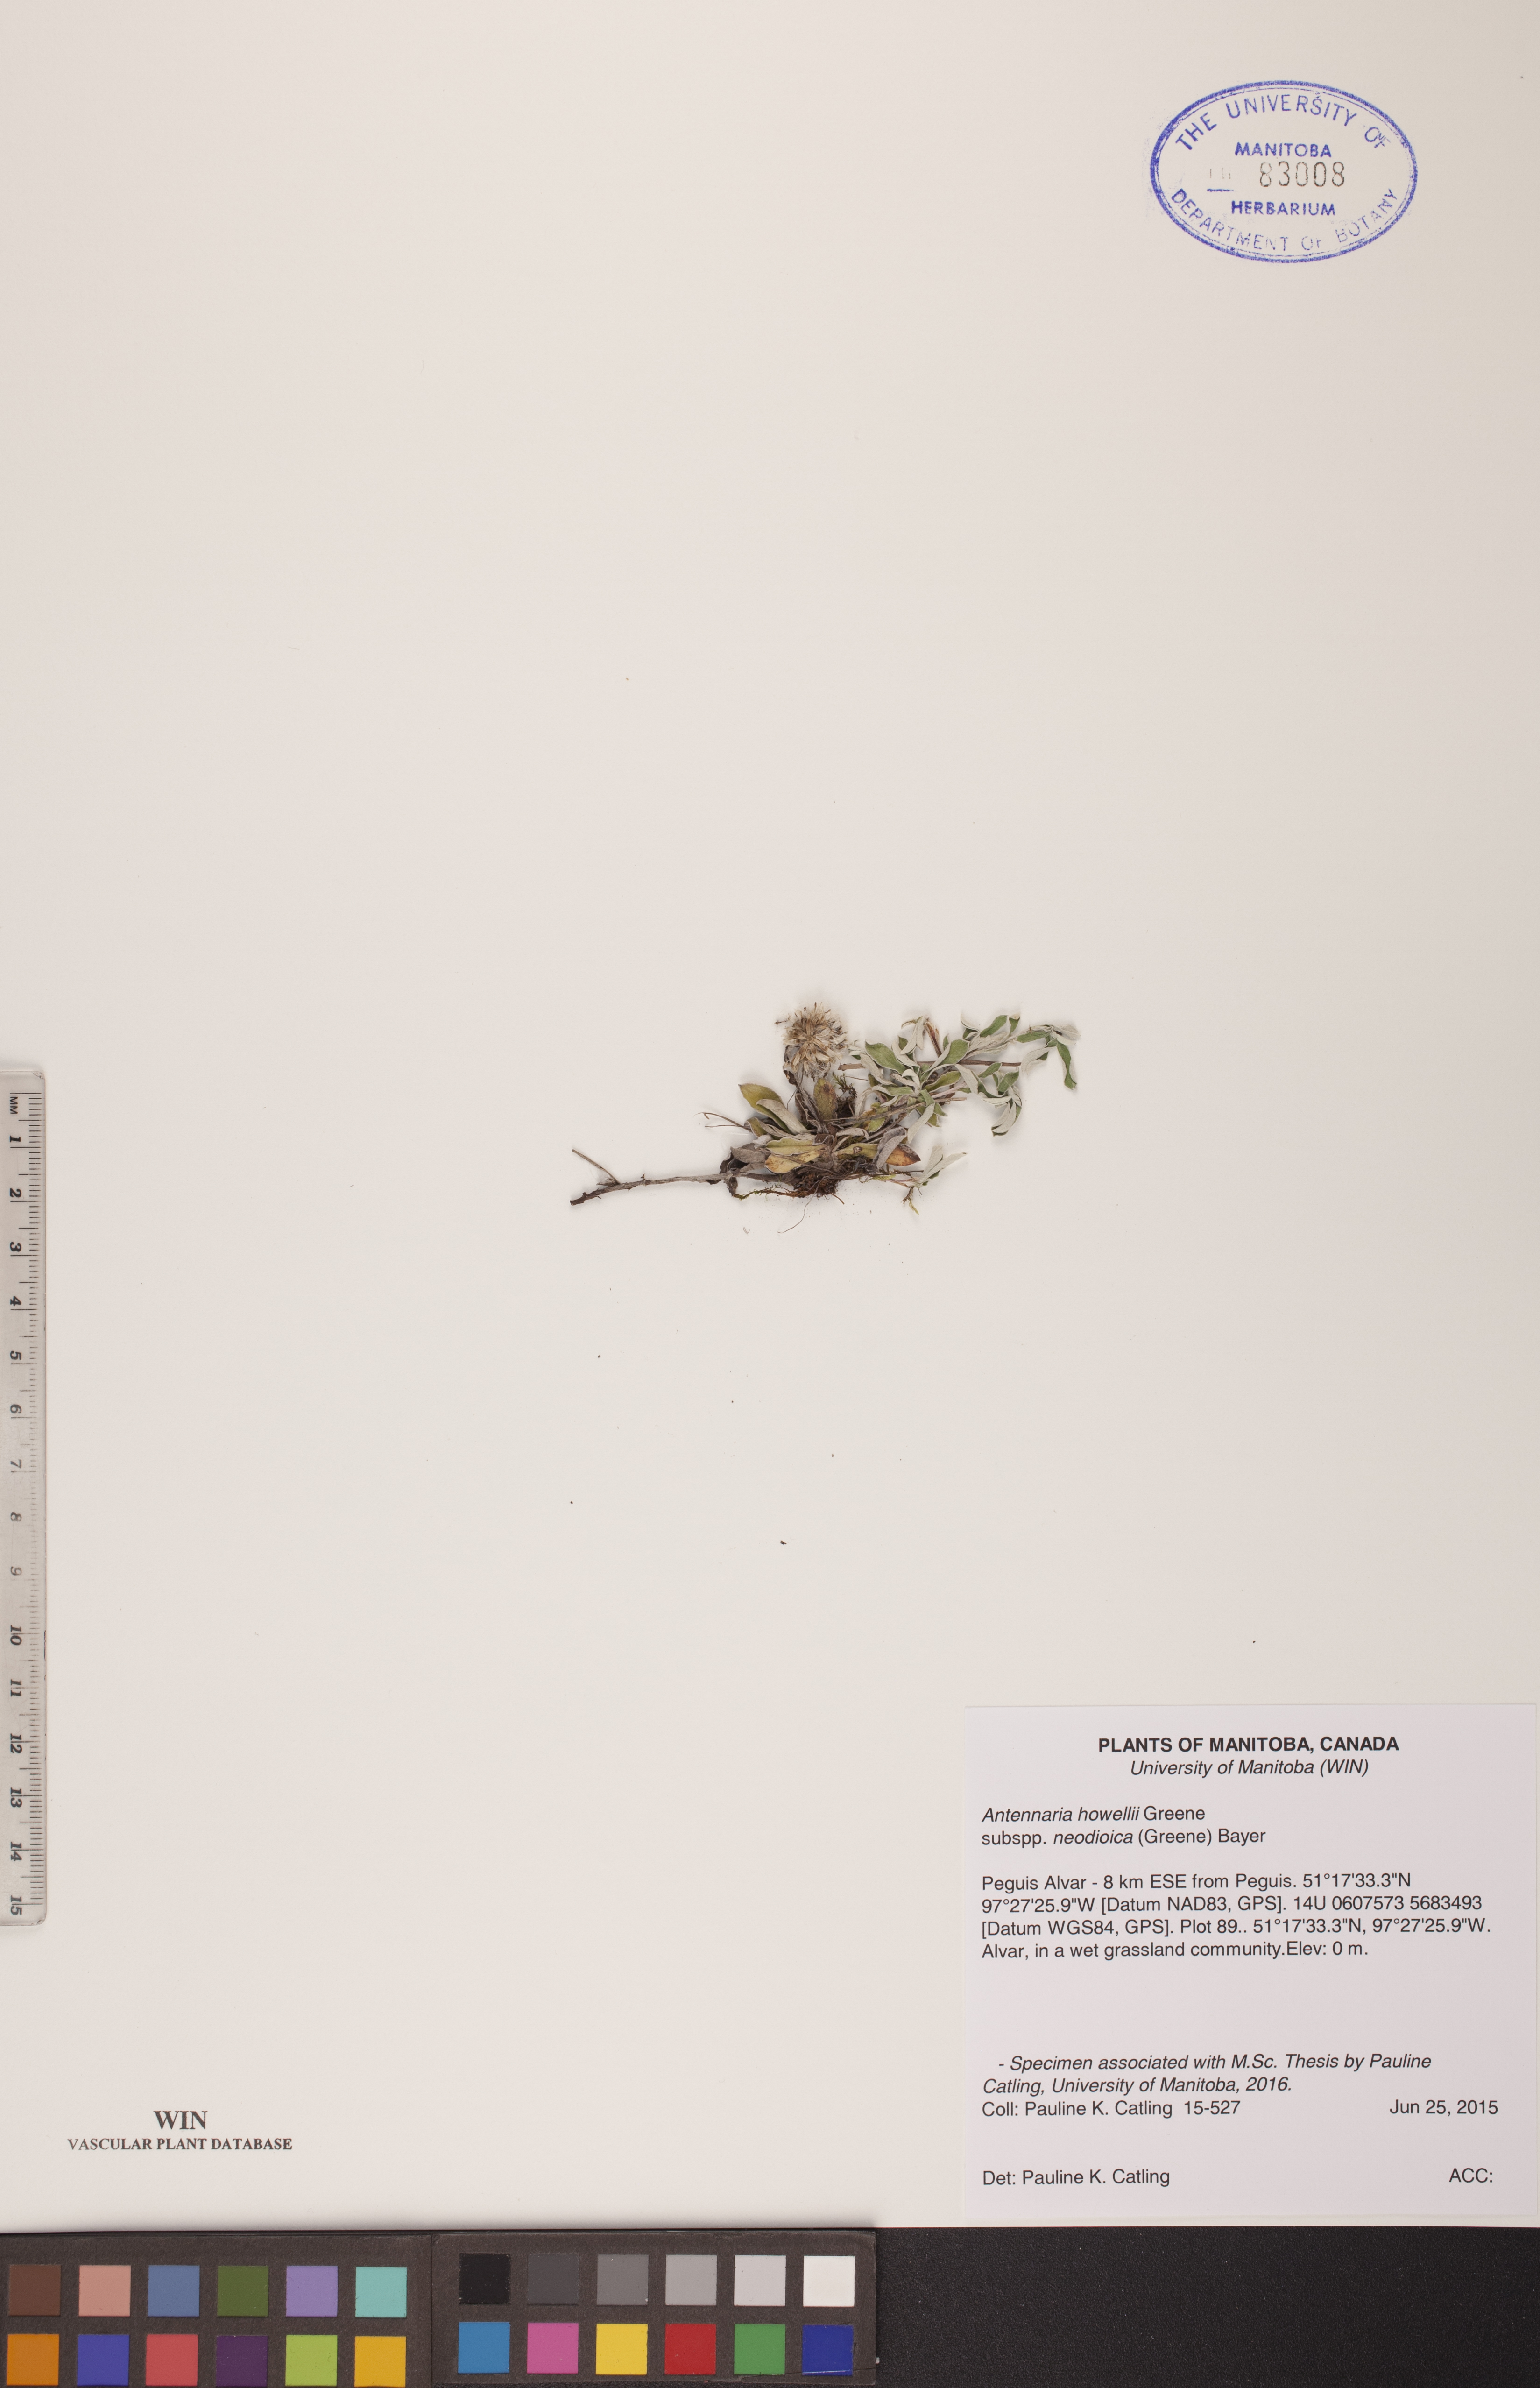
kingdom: Plantae
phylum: Tracheophyta
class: Magnoliopsida
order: Asterales
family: Asteraceae
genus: Antennaria
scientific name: Antennaria howellii
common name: Howell's pussytoes
